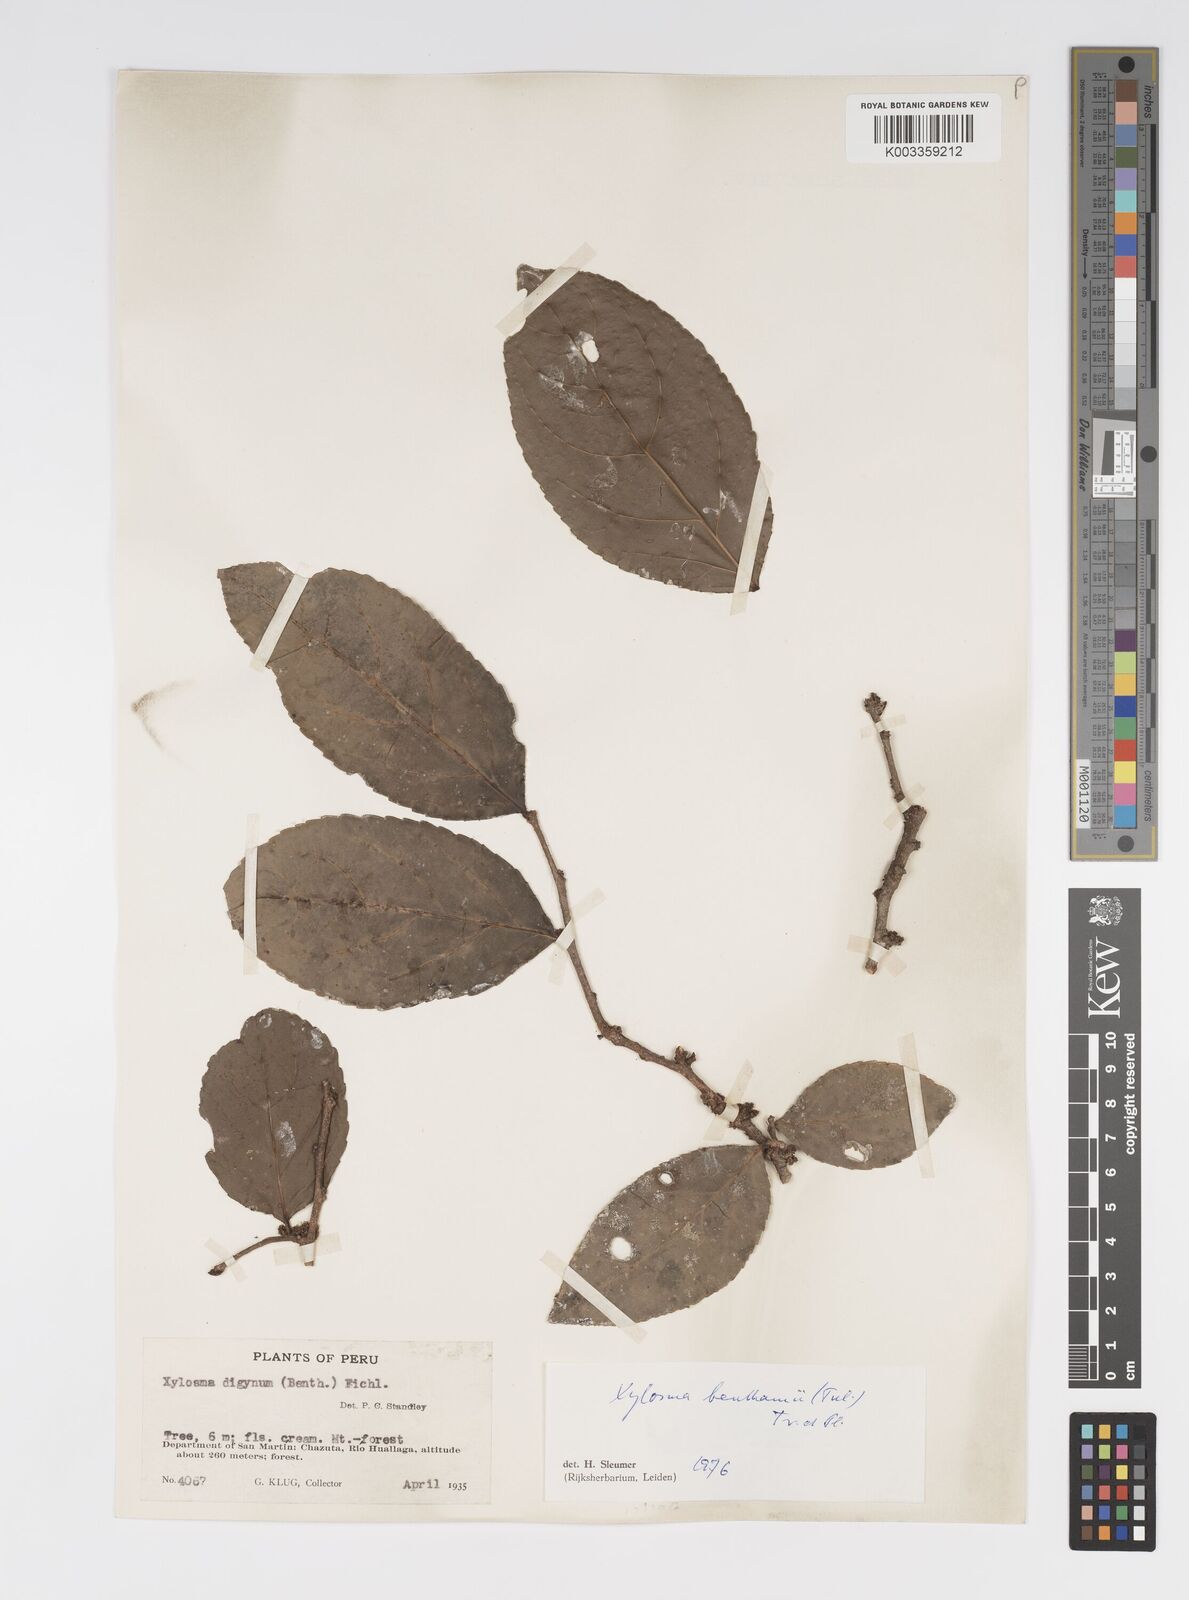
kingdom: Plantae
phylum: Tracheophyta
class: Magnoliopsida
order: Malpighiales
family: Salicaceae
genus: Xylosma
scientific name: Xylosma benthamii
